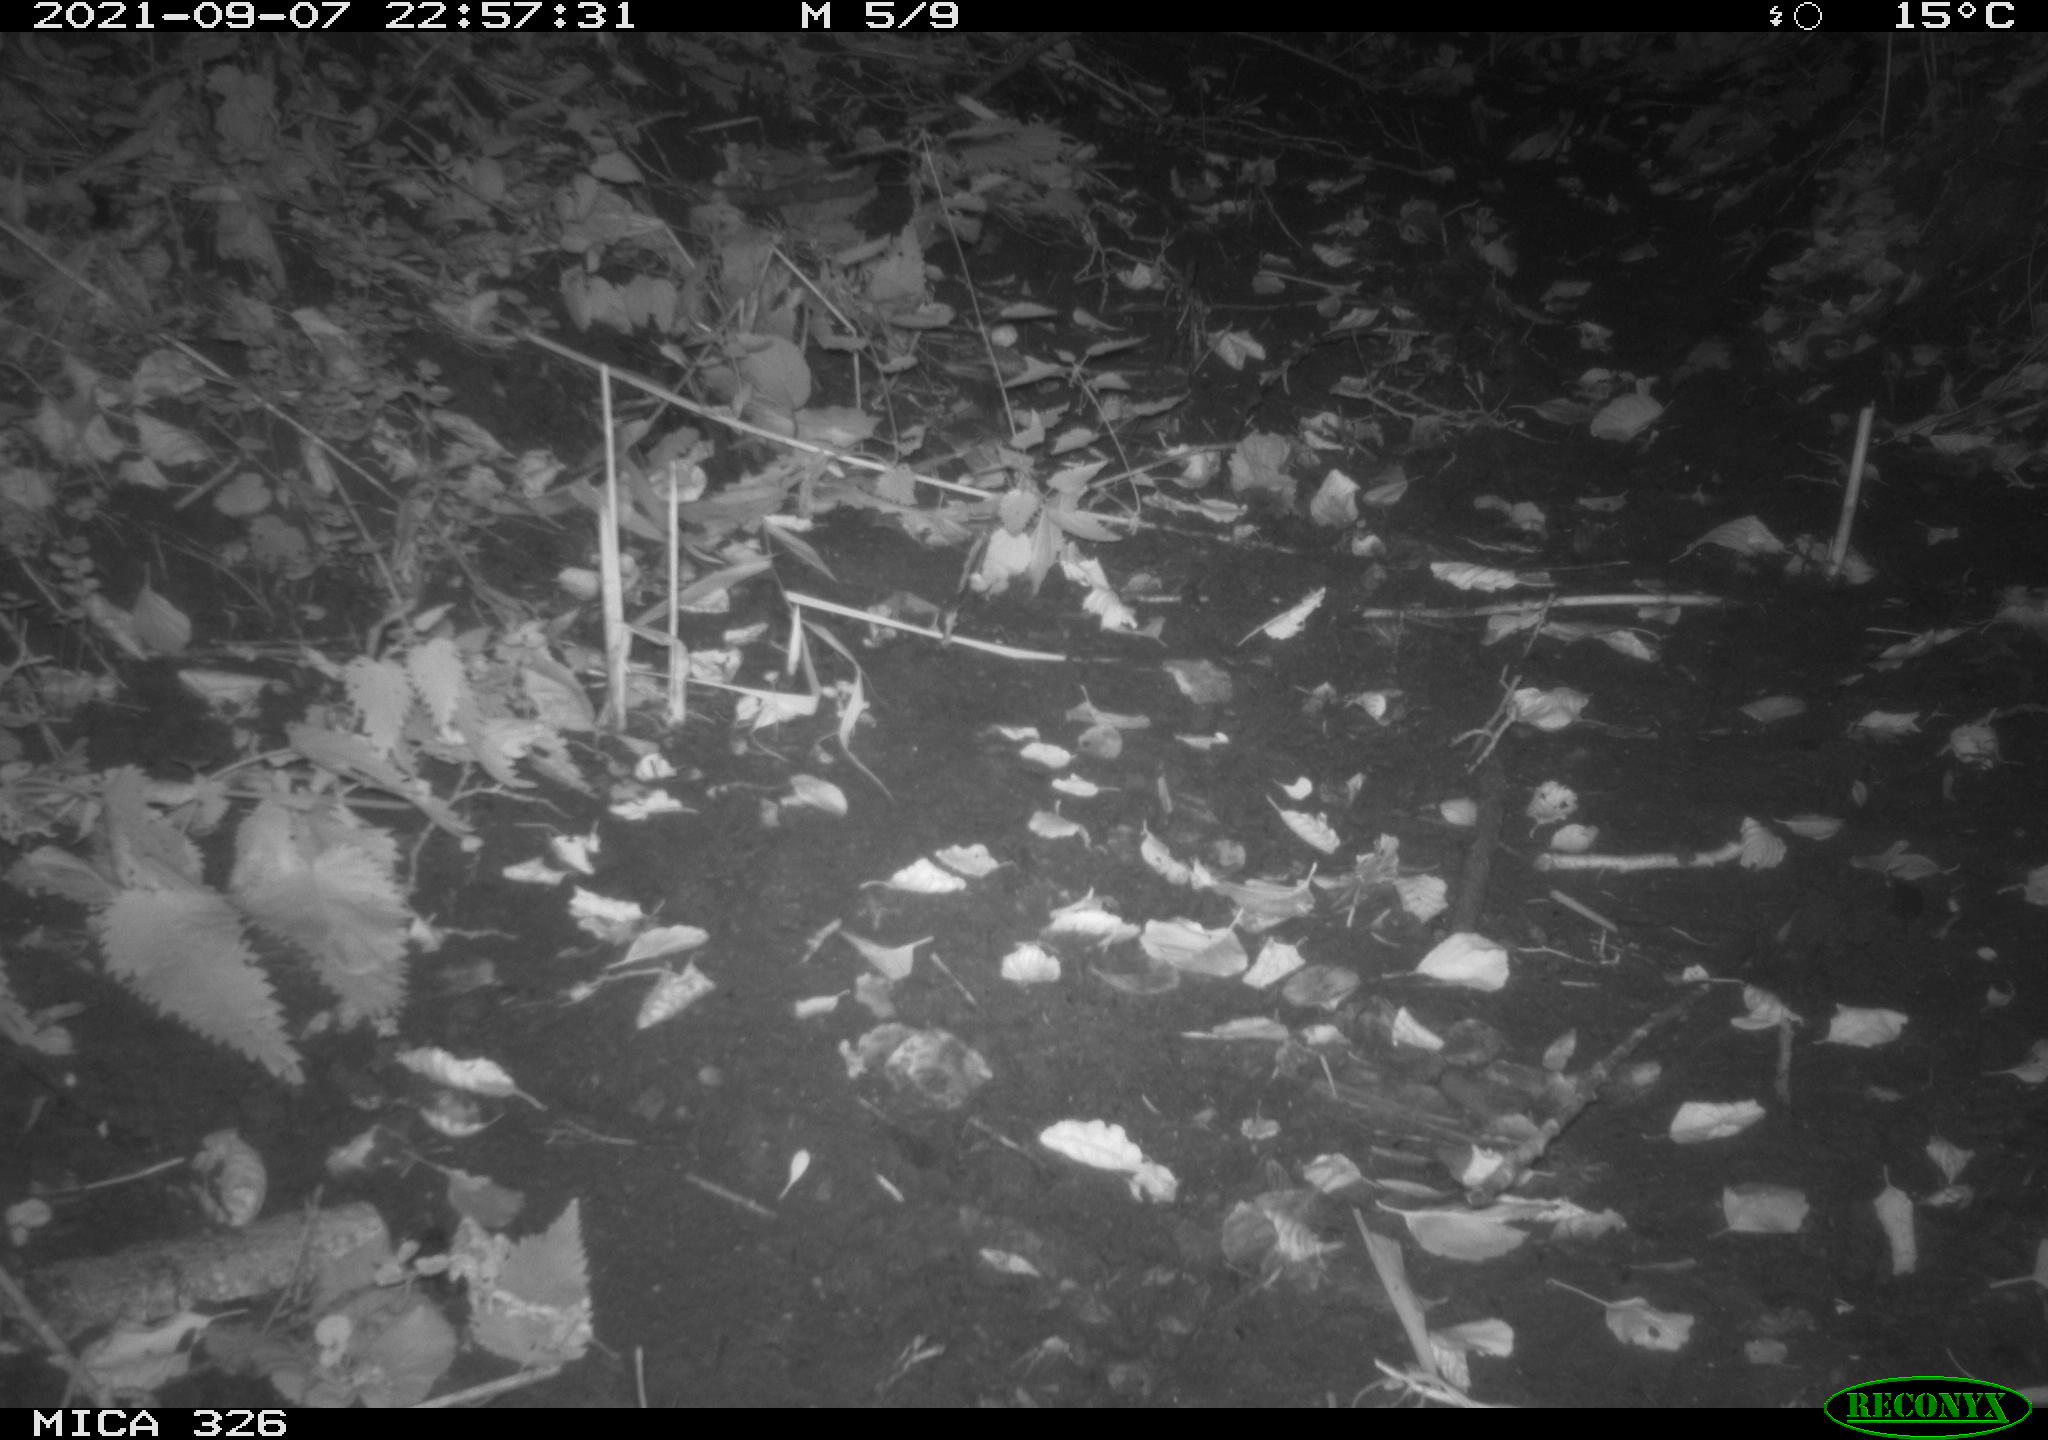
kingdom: Animalia
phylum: Chordata
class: Mammalia
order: Rodentia
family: Muridae
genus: Rattus
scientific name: Rattus norvegicus
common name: Brown rat
